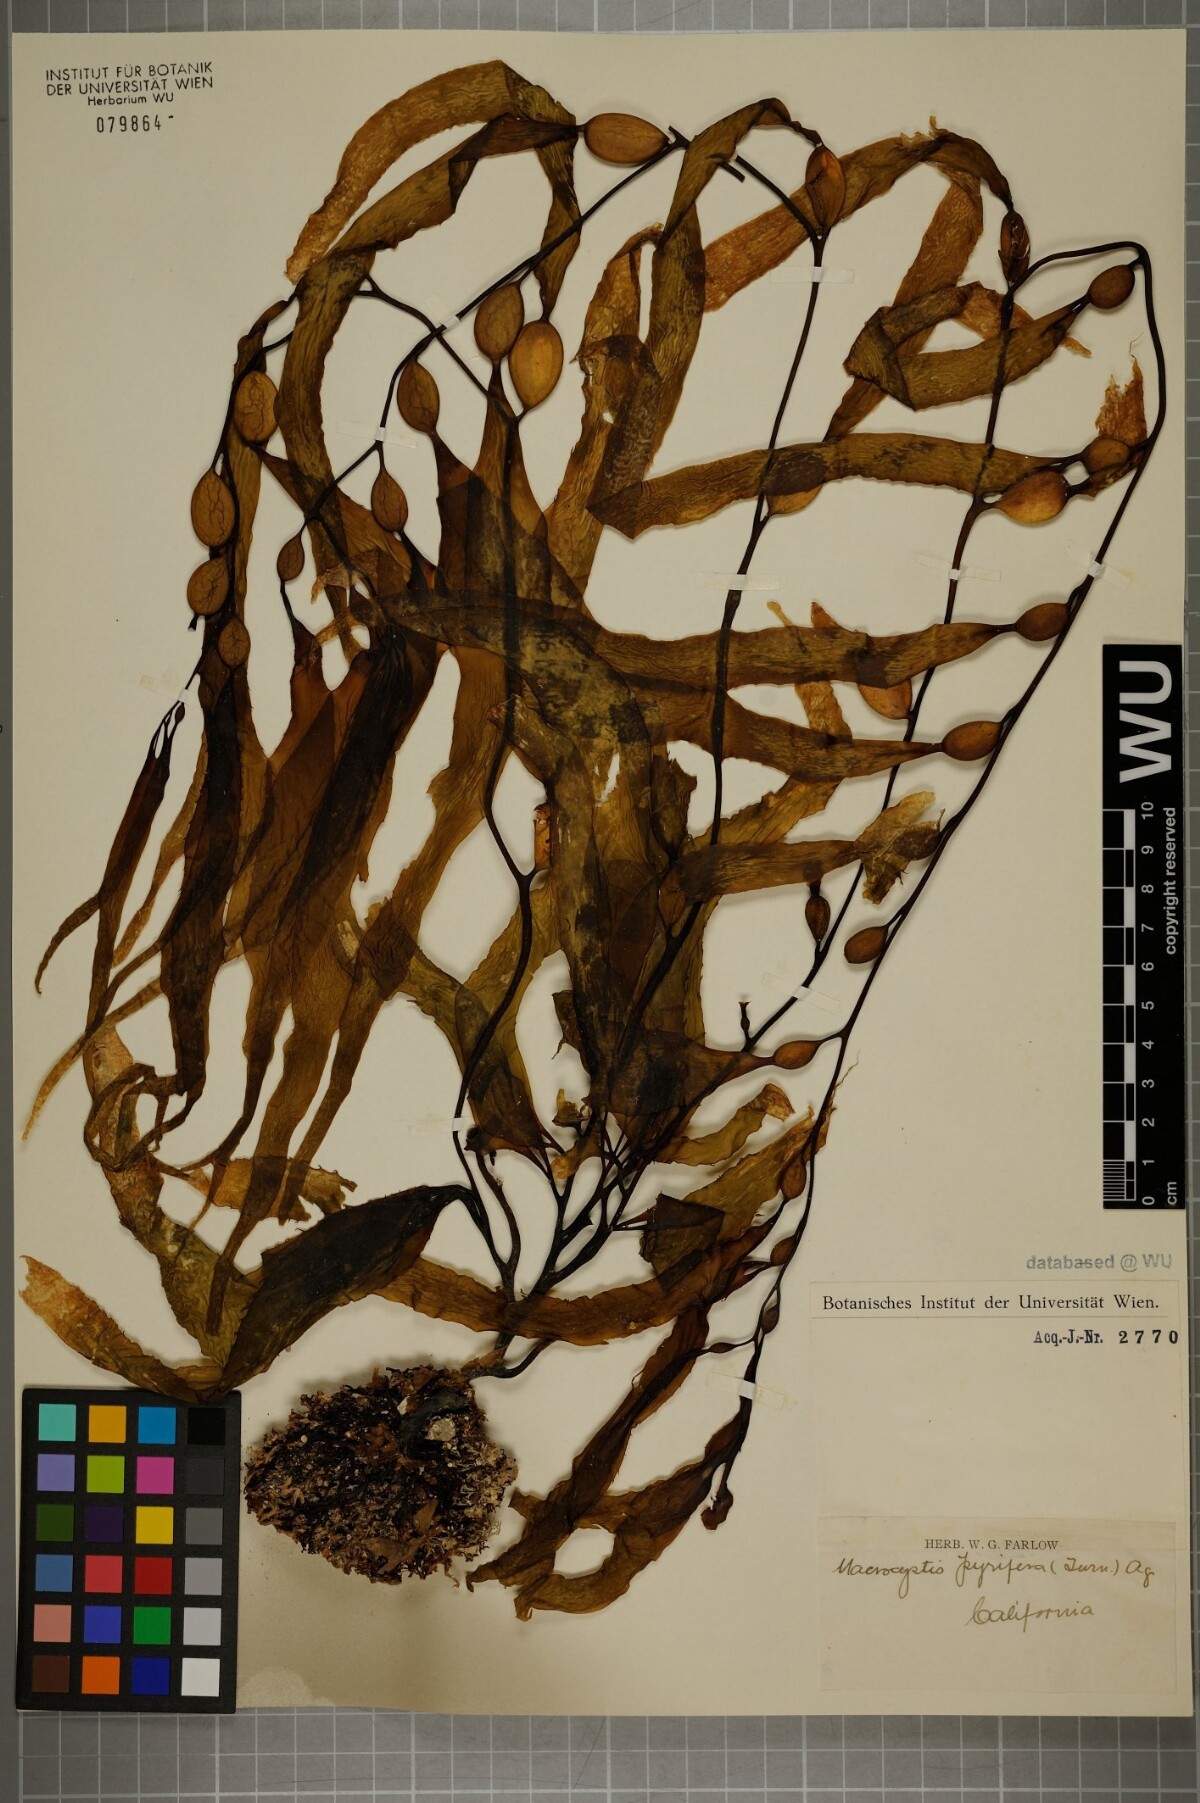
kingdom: Chromista
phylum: Ochrophyta
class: Phaeophyceae
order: Laminariales
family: Laminariaceae
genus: Macrocystis
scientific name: Macrocystis pyrifera
